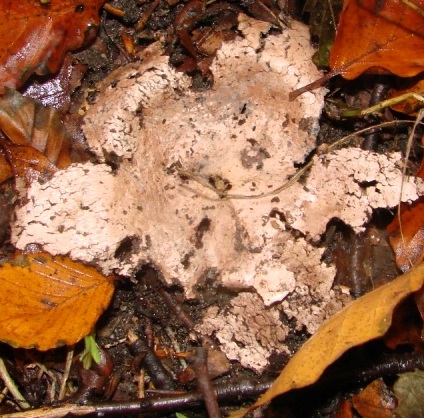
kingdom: Fungi
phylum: Basidiomycota
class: Agaricomycetes
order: Geastrales
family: Geastraceae
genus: Geastrum
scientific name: Geastrum rufescens
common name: kødfarvet stjernebold
